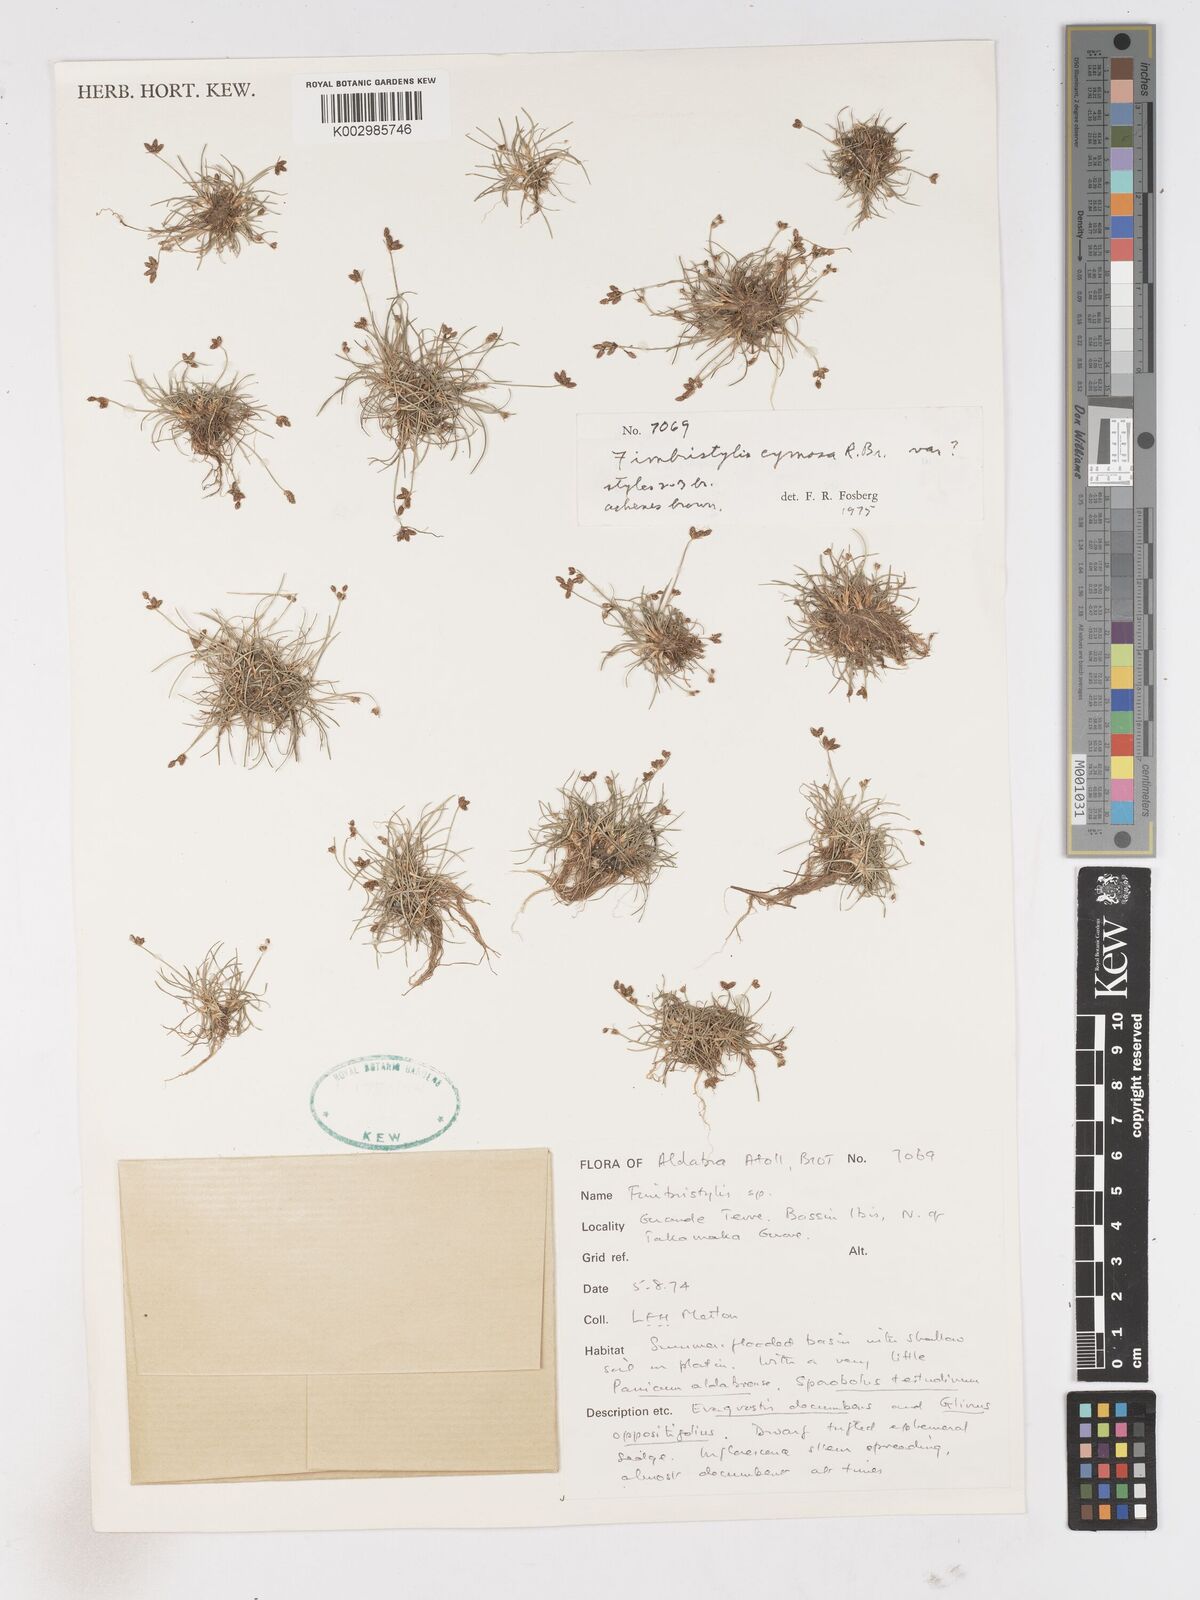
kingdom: Plantae
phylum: Tracheophyta
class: Liliopsida
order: Poales
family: Cyperaceae
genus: Fimbristylis
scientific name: Fimbristylis cymosa
